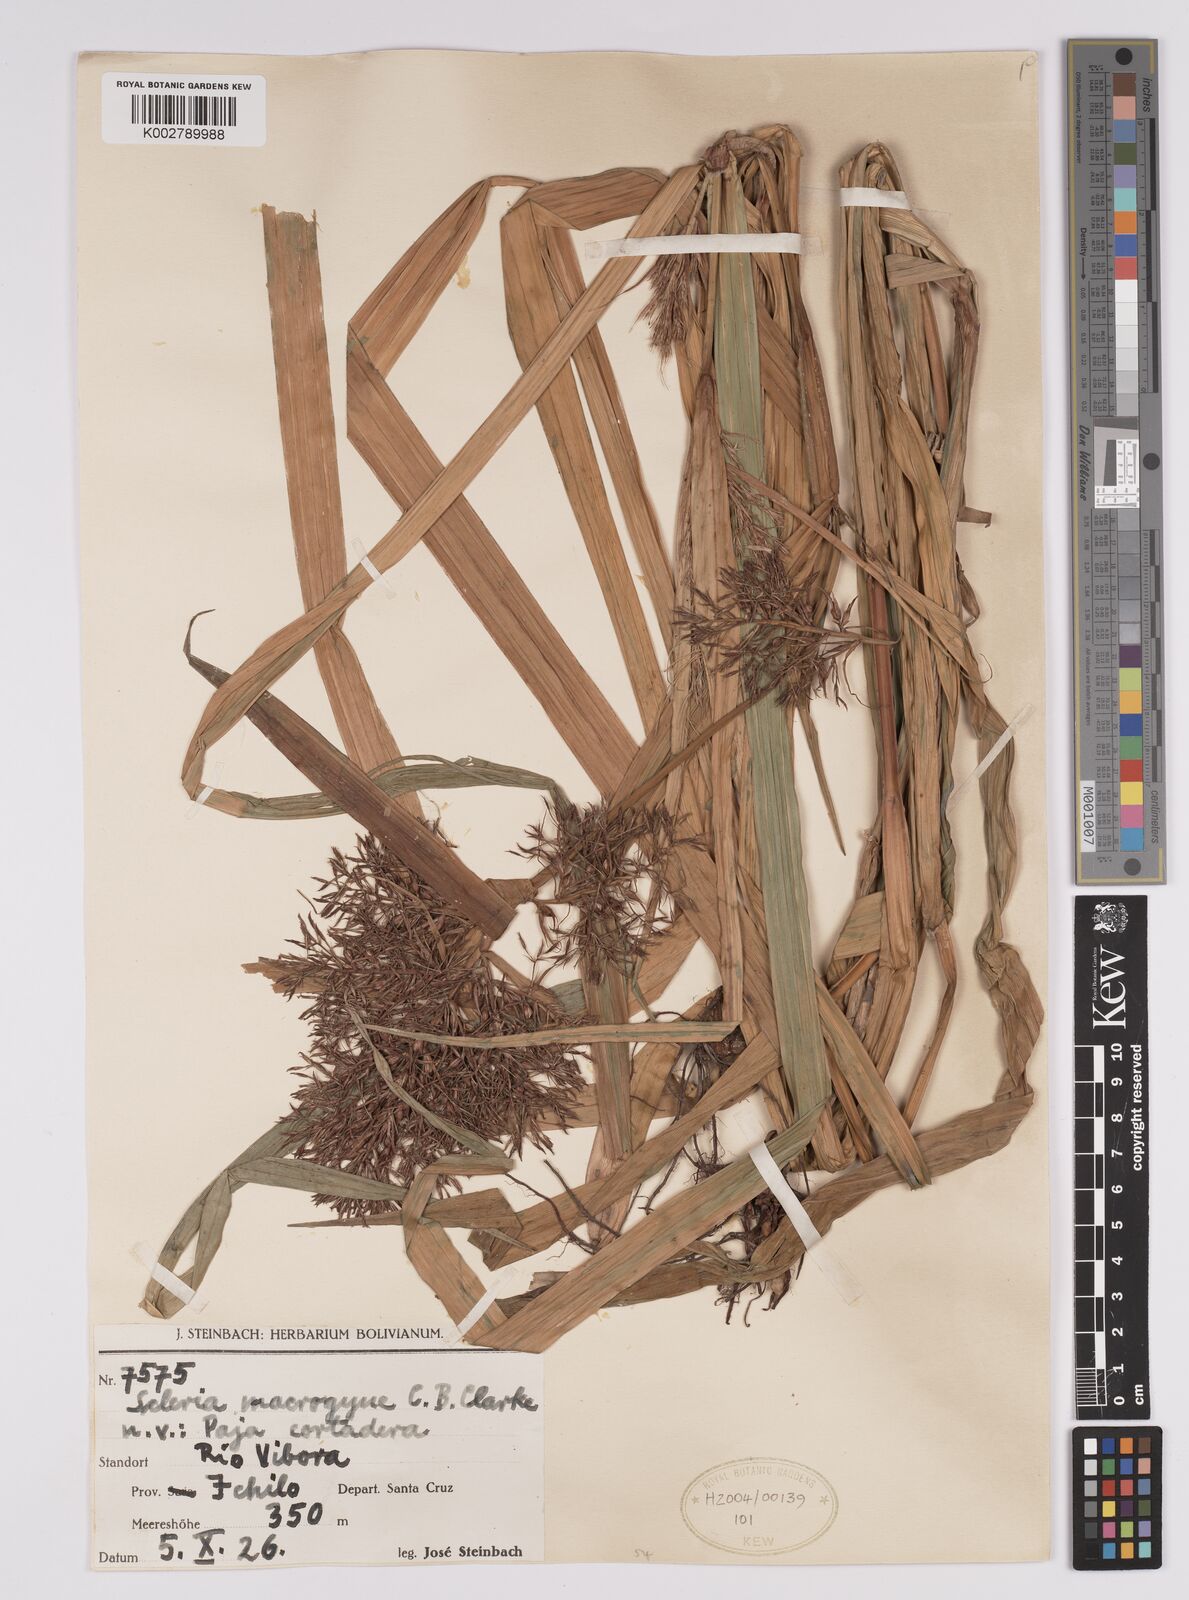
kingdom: Plantae
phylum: Tracheophyta
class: Liliopsida
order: Poales
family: Cyperaceae
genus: Scleria
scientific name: Scleria macrogyne
